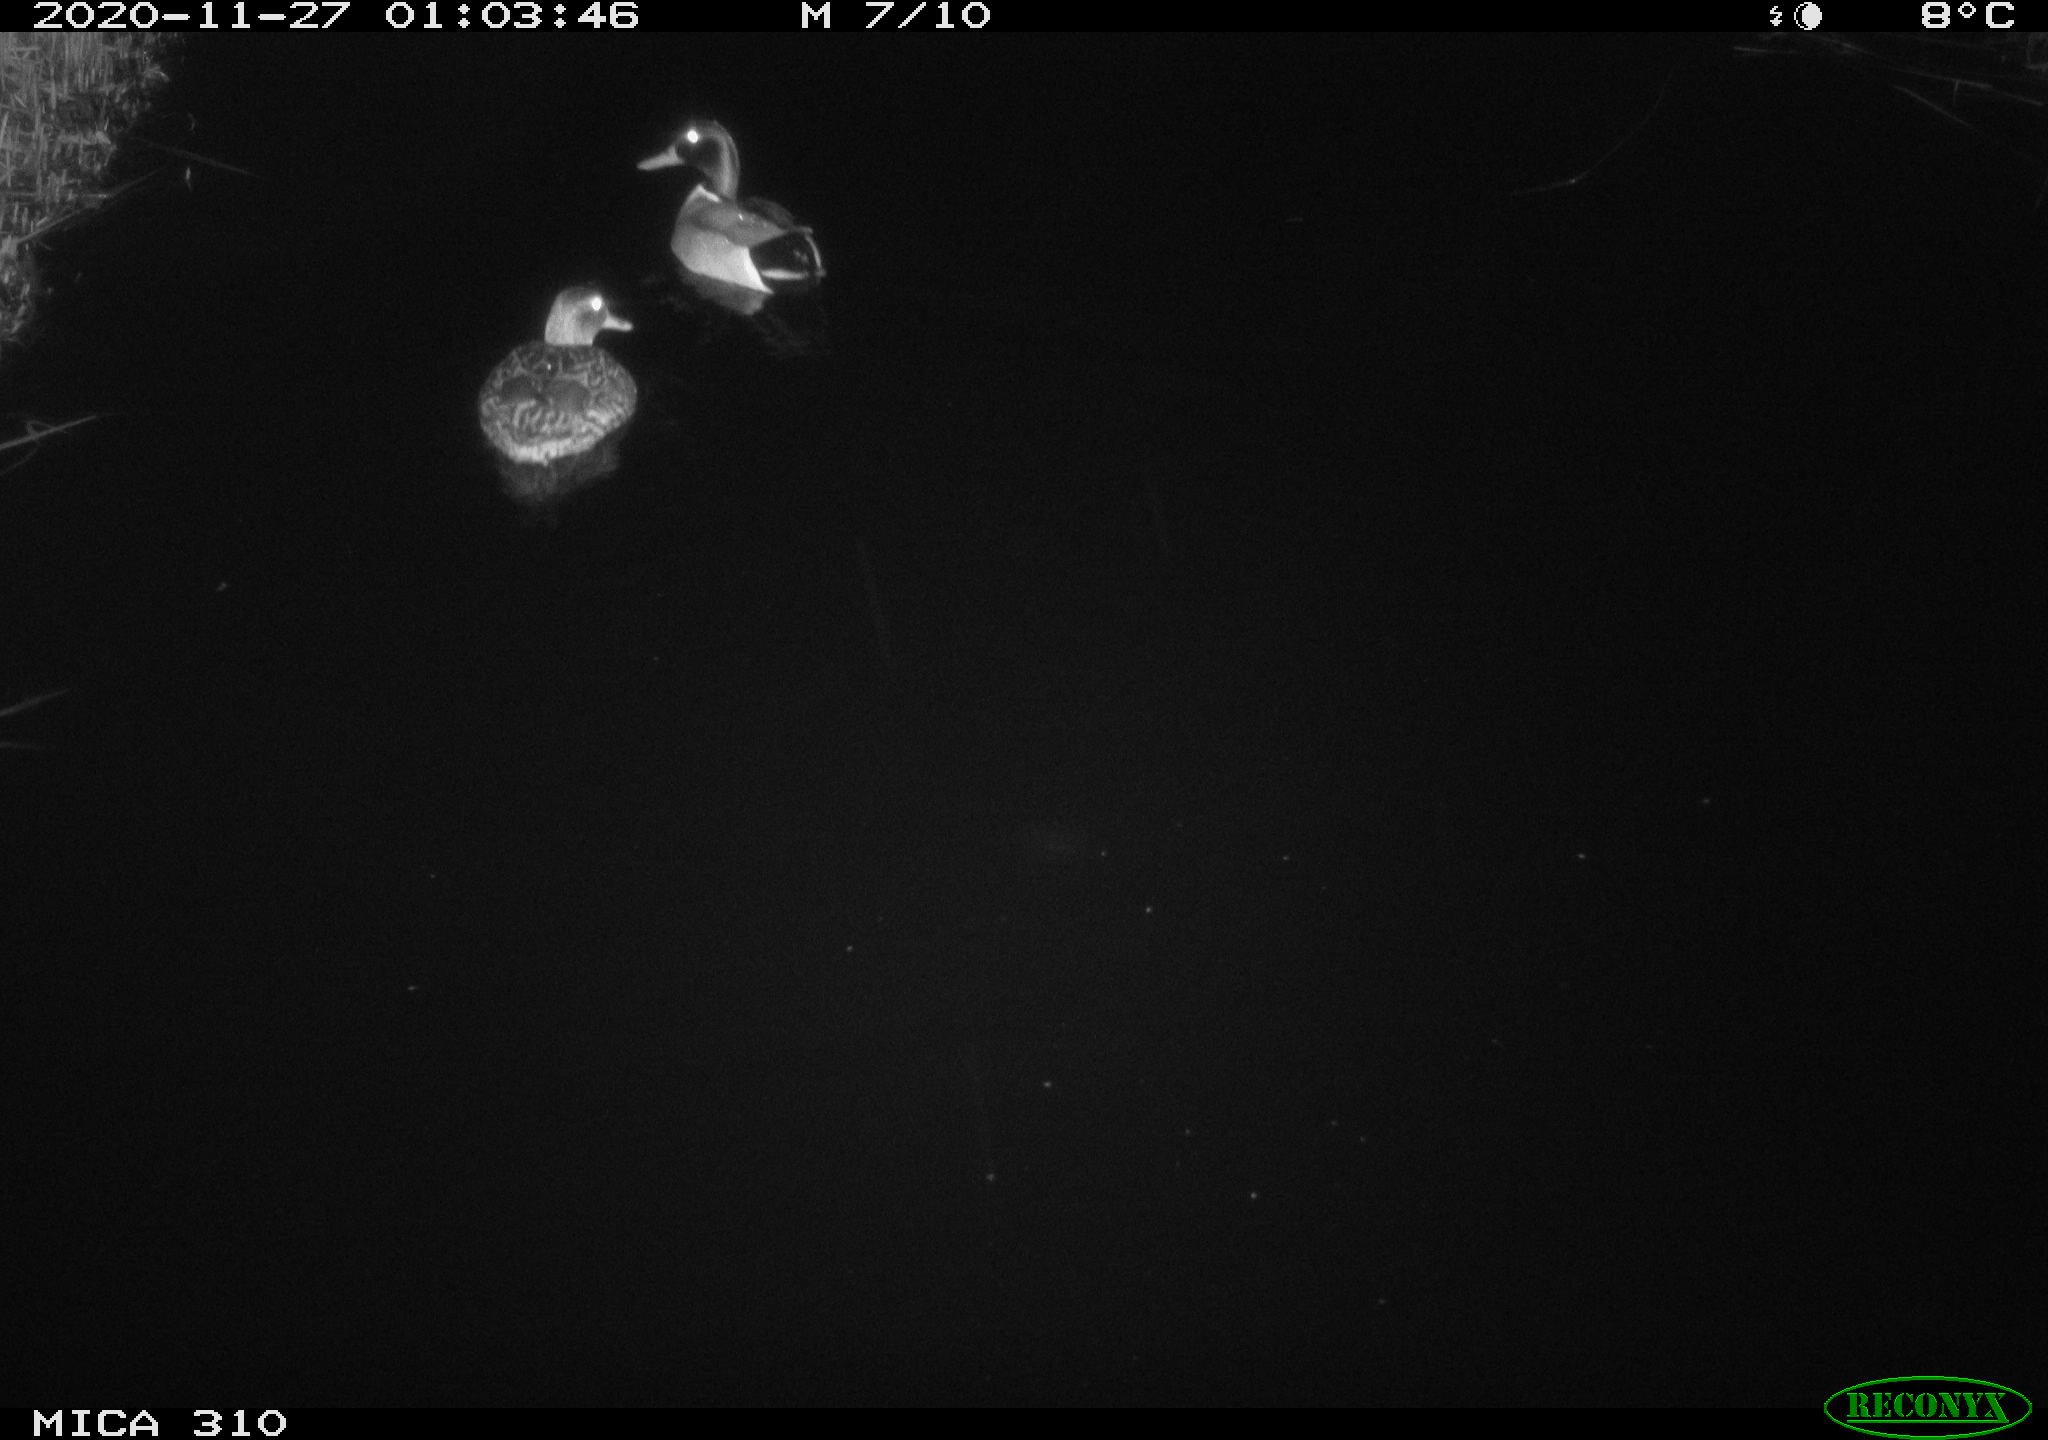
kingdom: Animalia
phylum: Chordata
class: Aves
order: Anseriformes
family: Anatidae
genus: Anas
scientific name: Anas platyrhynchos
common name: Mallard
